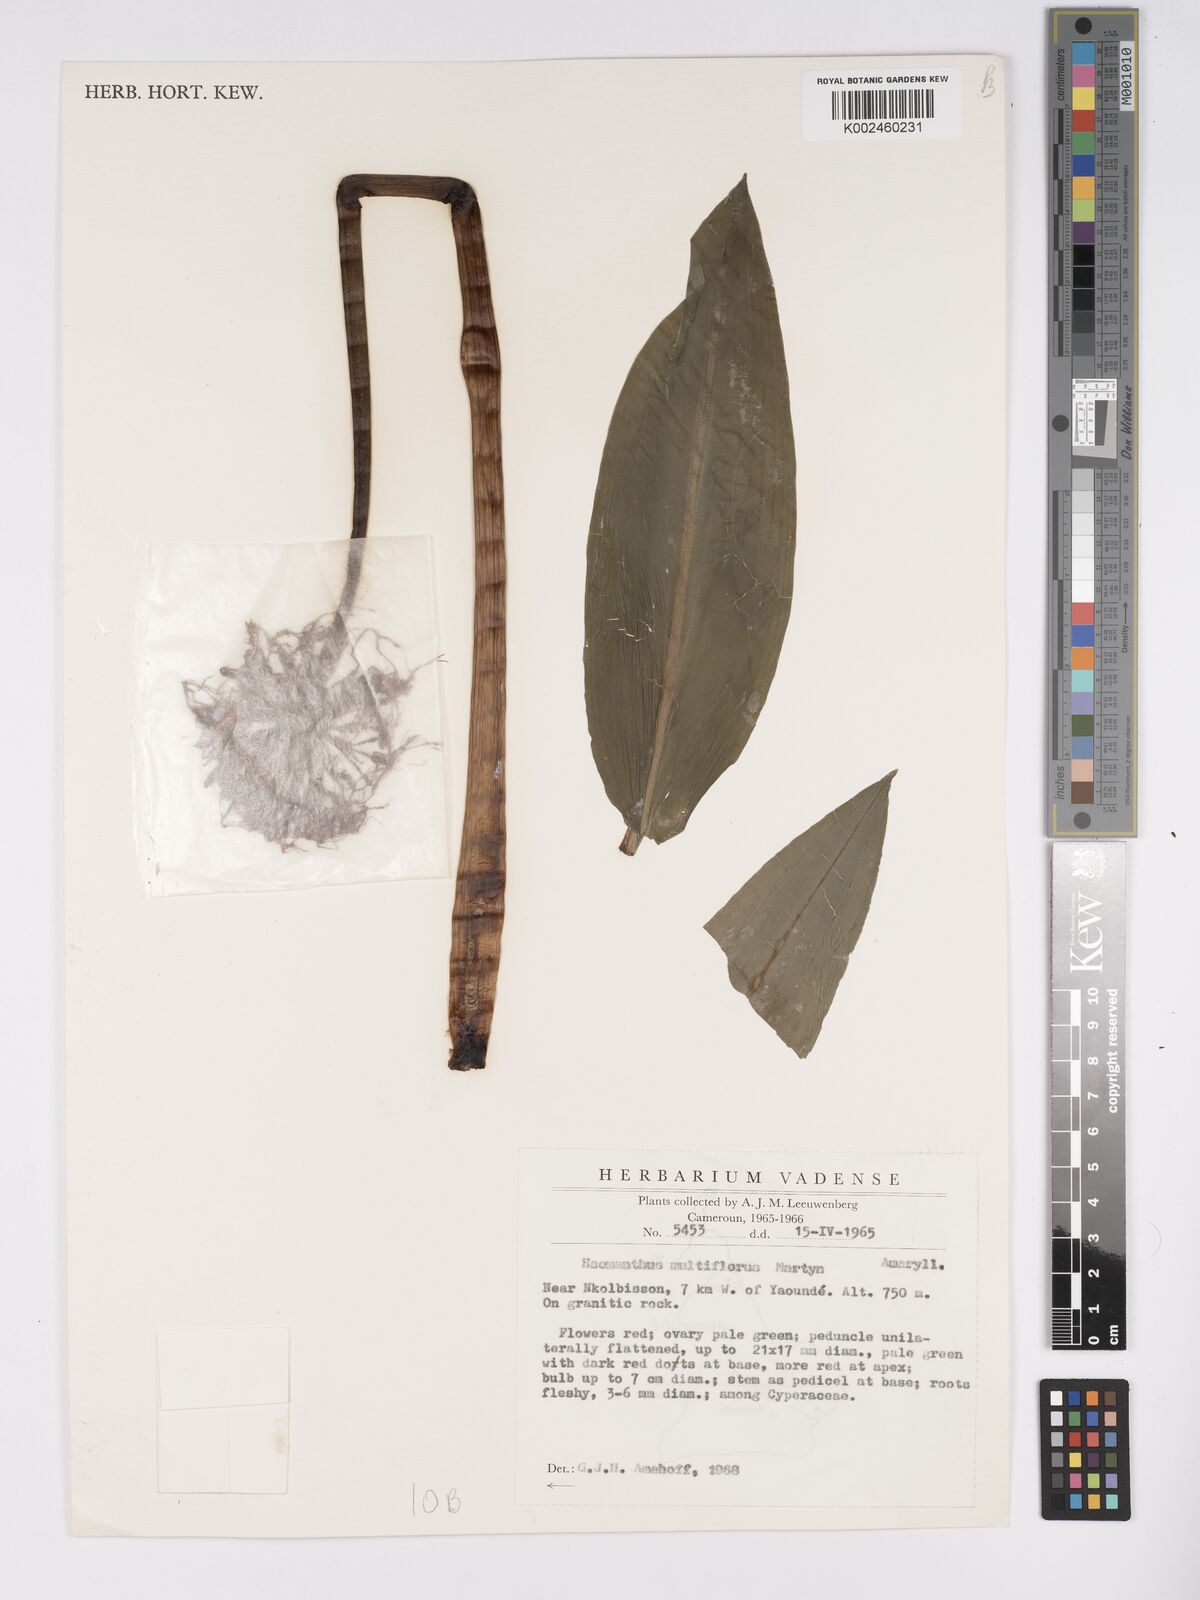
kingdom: Plantae
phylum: Tracheophyta
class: Liliopsida
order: Asparagales
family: Amaryllidaceae
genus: Scadoxus
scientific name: Scadoxus multiflorus
